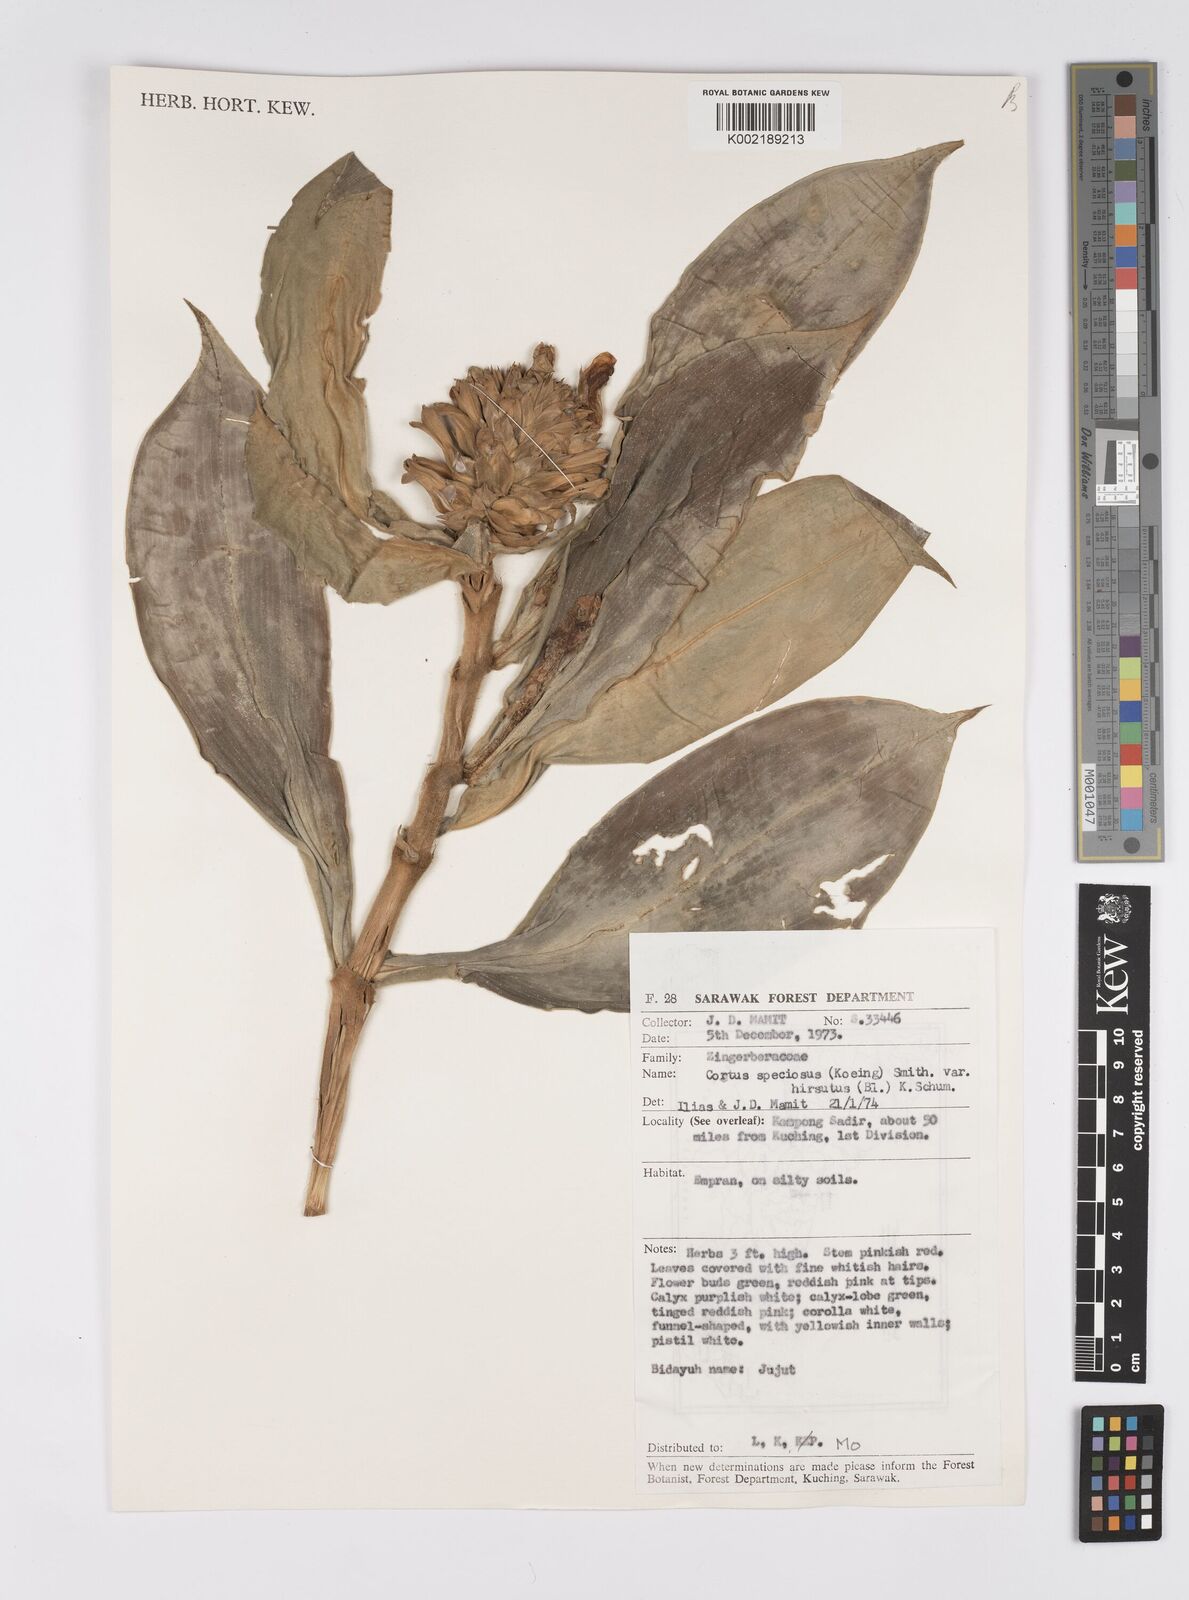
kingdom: Plantae
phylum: Tracheophyta
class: Liliopsida
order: Zingiberales
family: Costaceae
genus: Hellenia
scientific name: Hellenia speciosa
